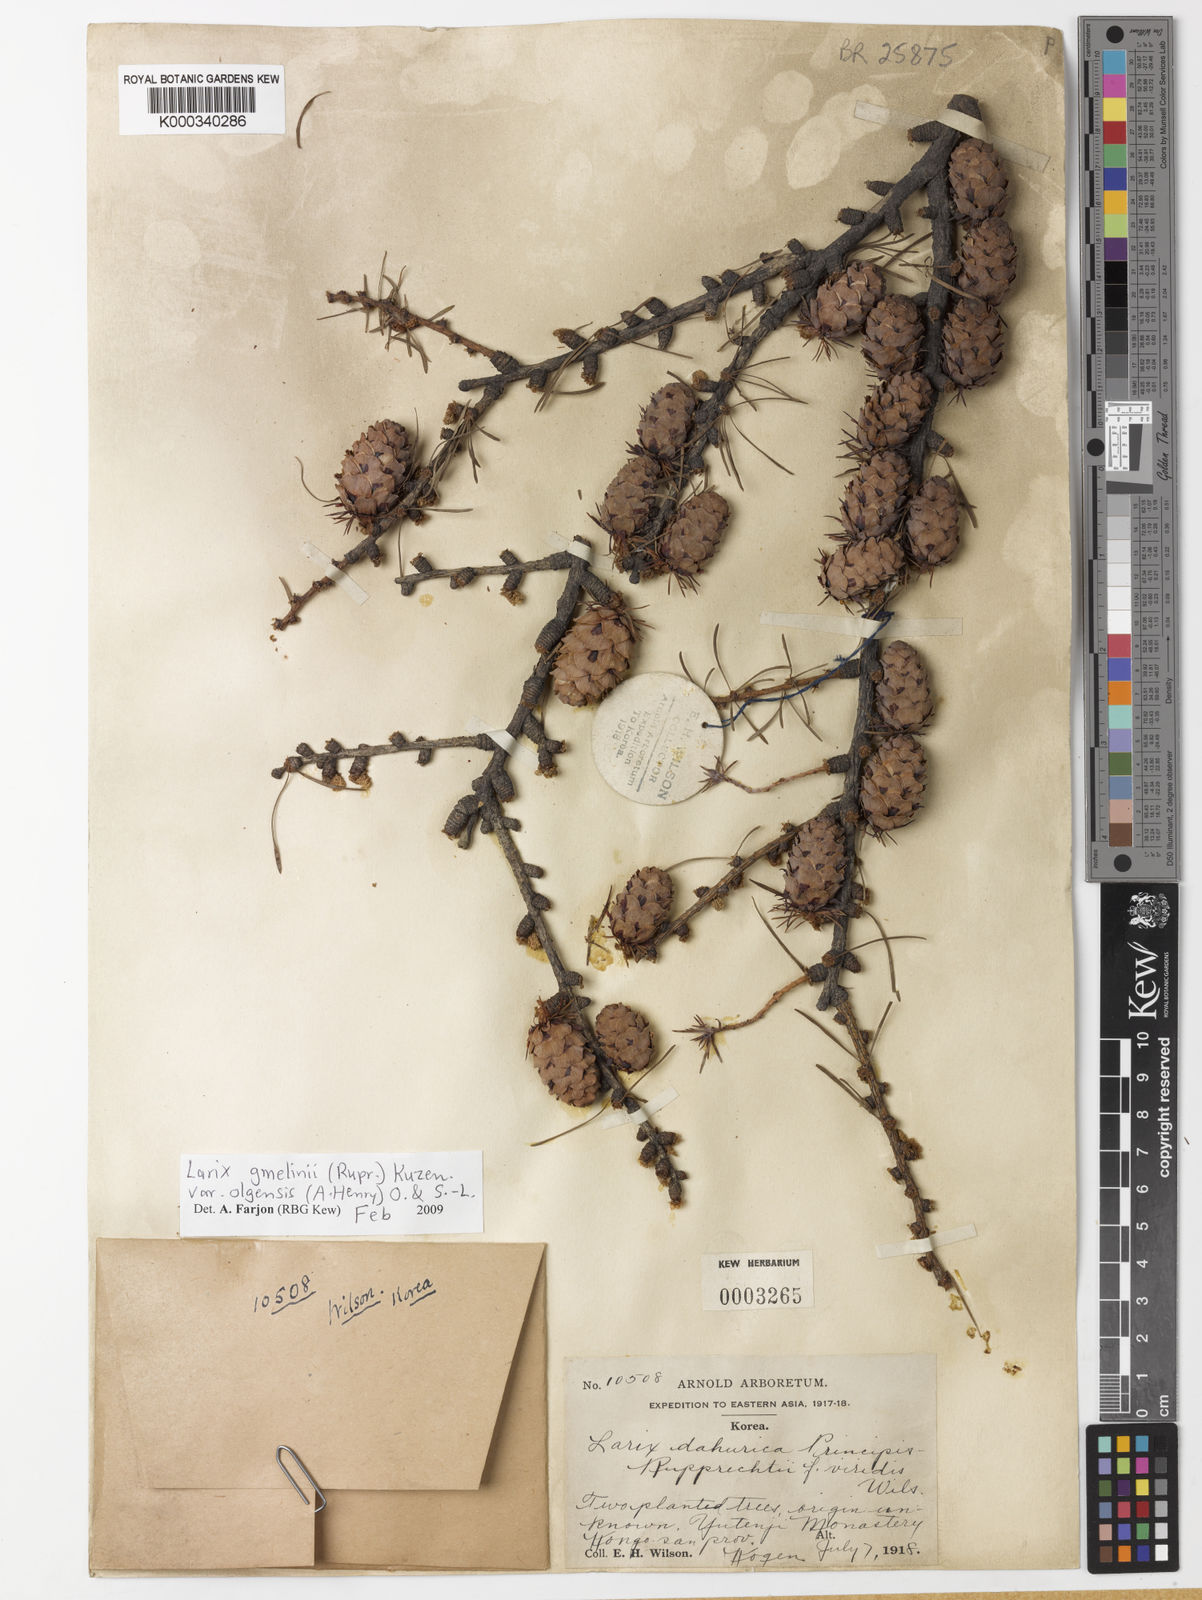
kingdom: Plantae
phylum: Tracheophyta
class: Pinopsida
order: Pinales
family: Pinaceae
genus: Larix
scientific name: Larix gmelinii
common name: Dahurian larch
